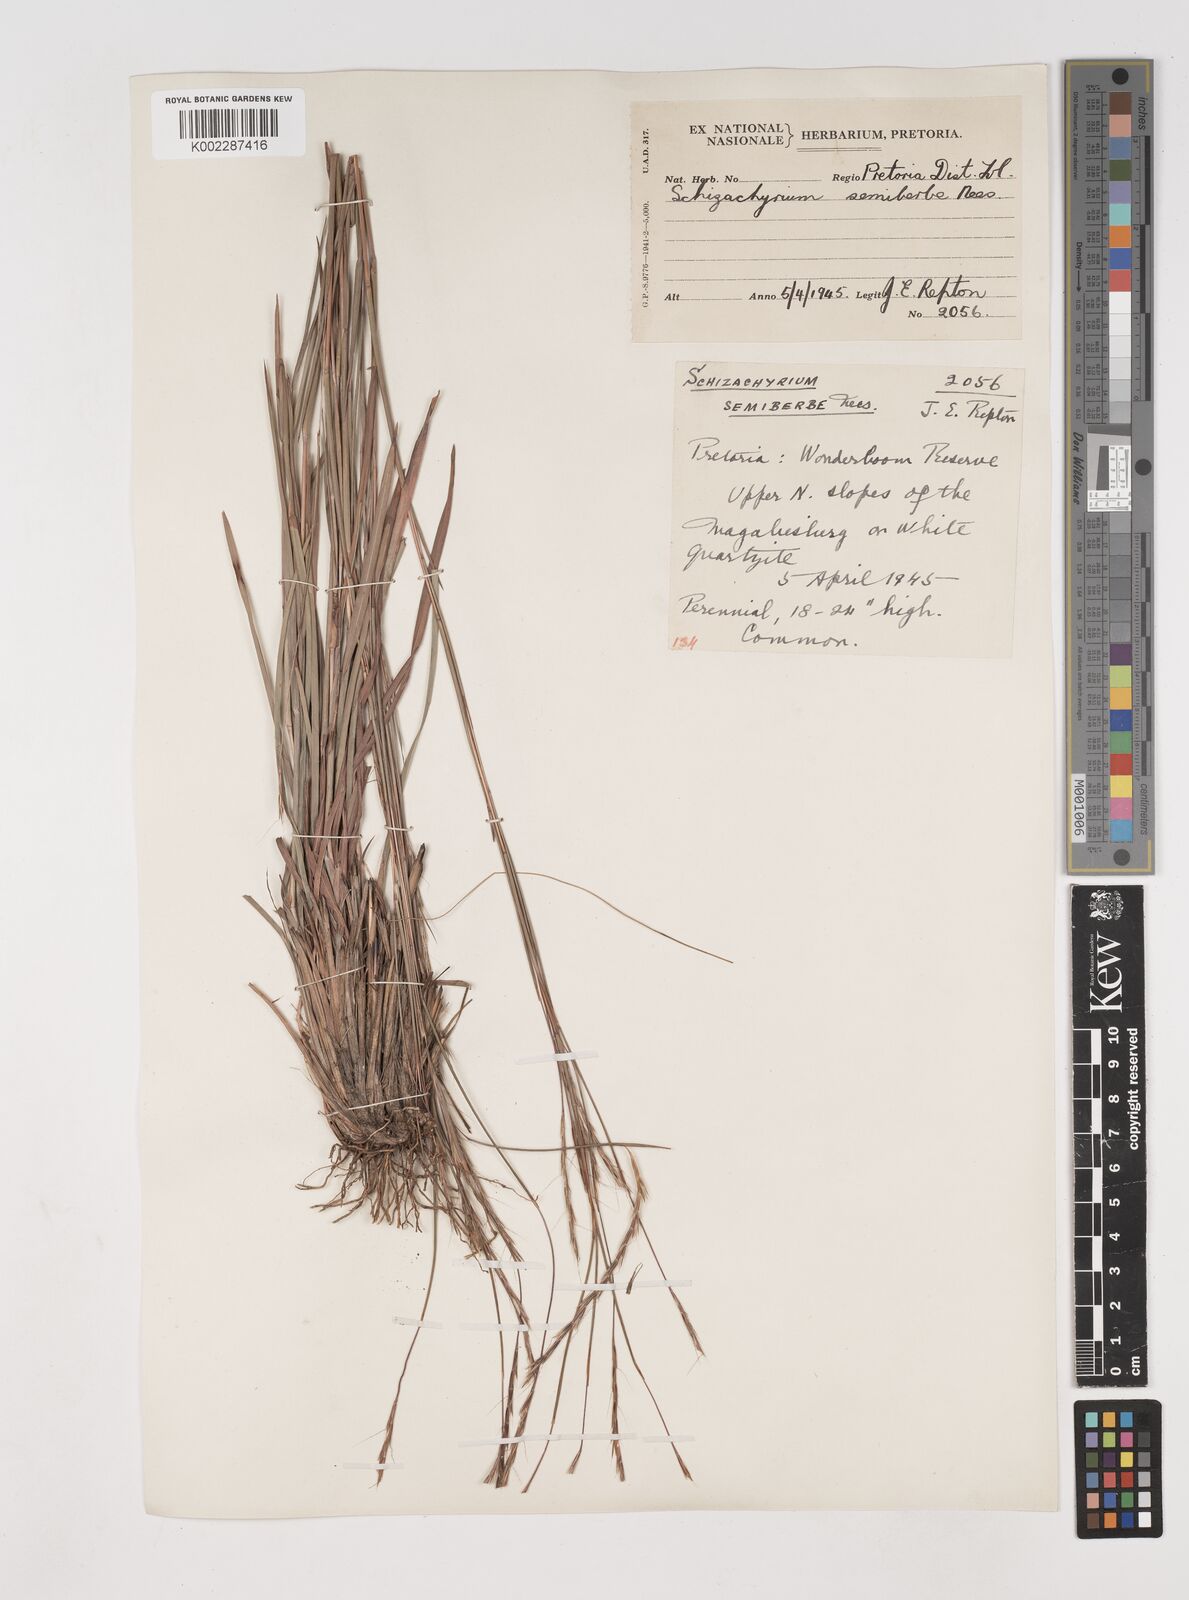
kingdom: Plantae
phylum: Tracheophyta
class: Liliopsida
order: Poales
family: Poaceae
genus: Schizachyrium
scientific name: Schizachyrium sanguineum
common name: Crimson bluestem
